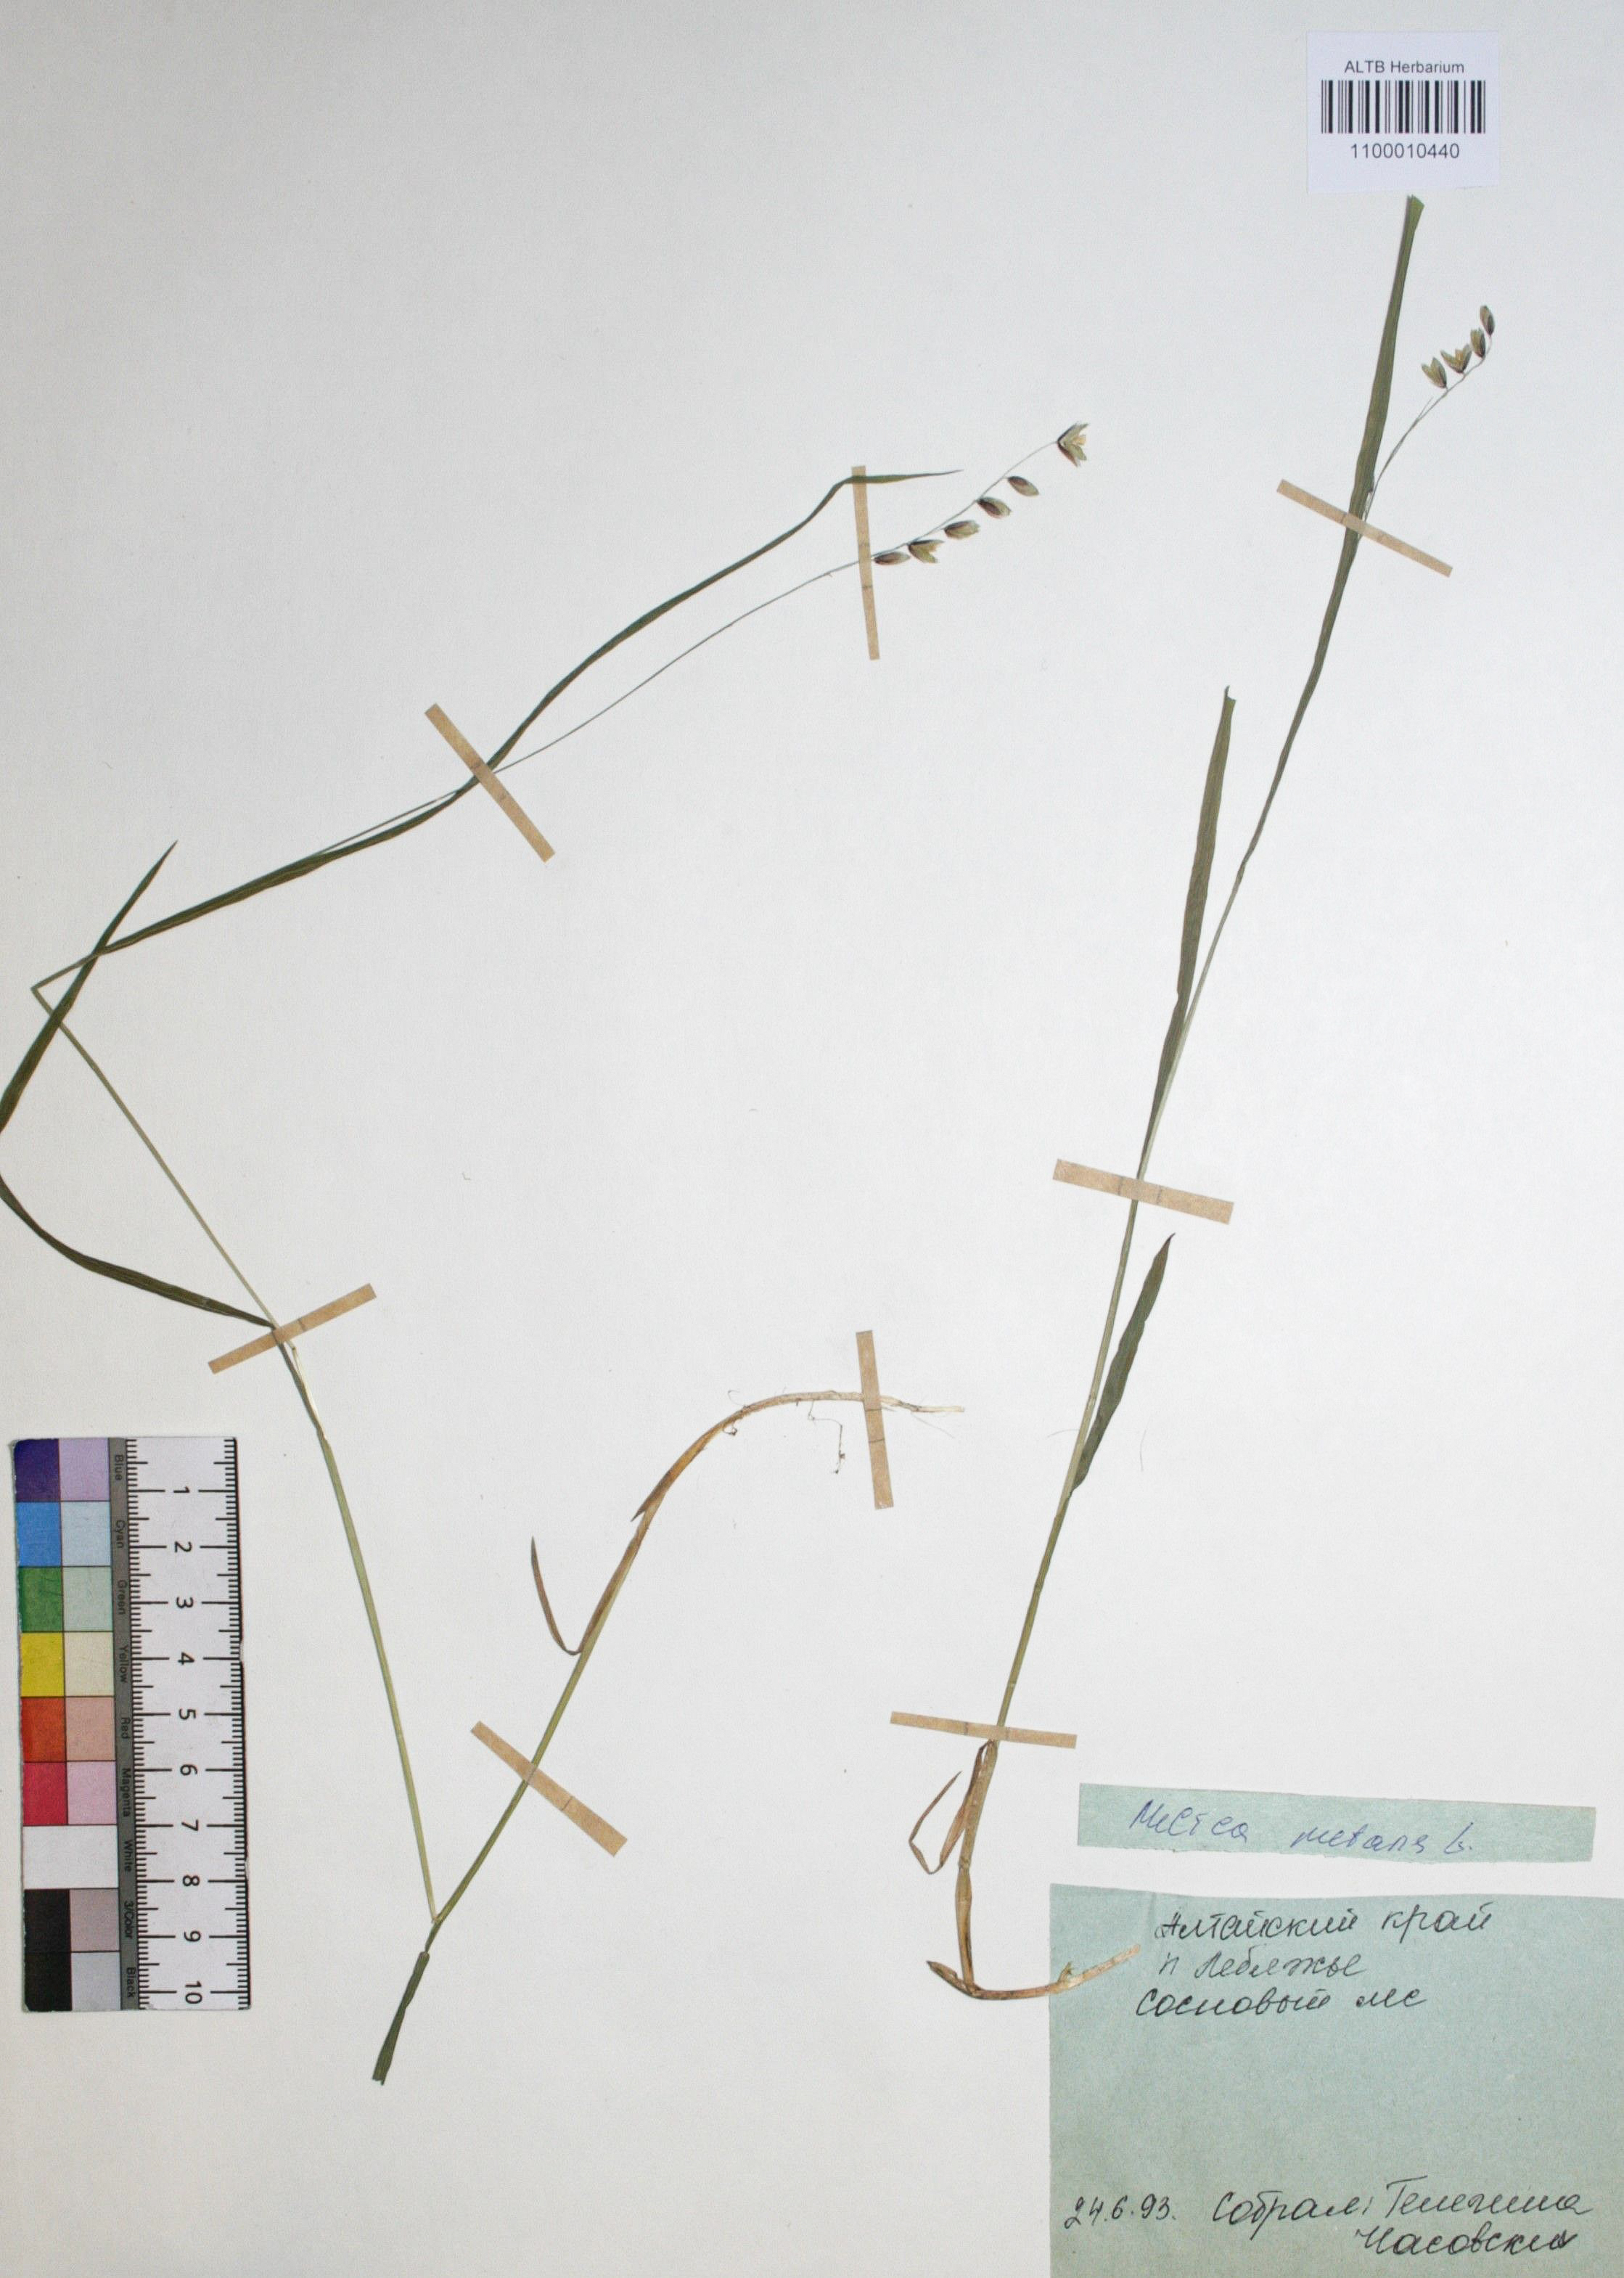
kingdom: Plantae
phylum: Tracheophyta
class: Liliopsida
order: Poales
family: Poaceae
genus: Melica
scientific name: Melica nutans
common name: Mountain melick
